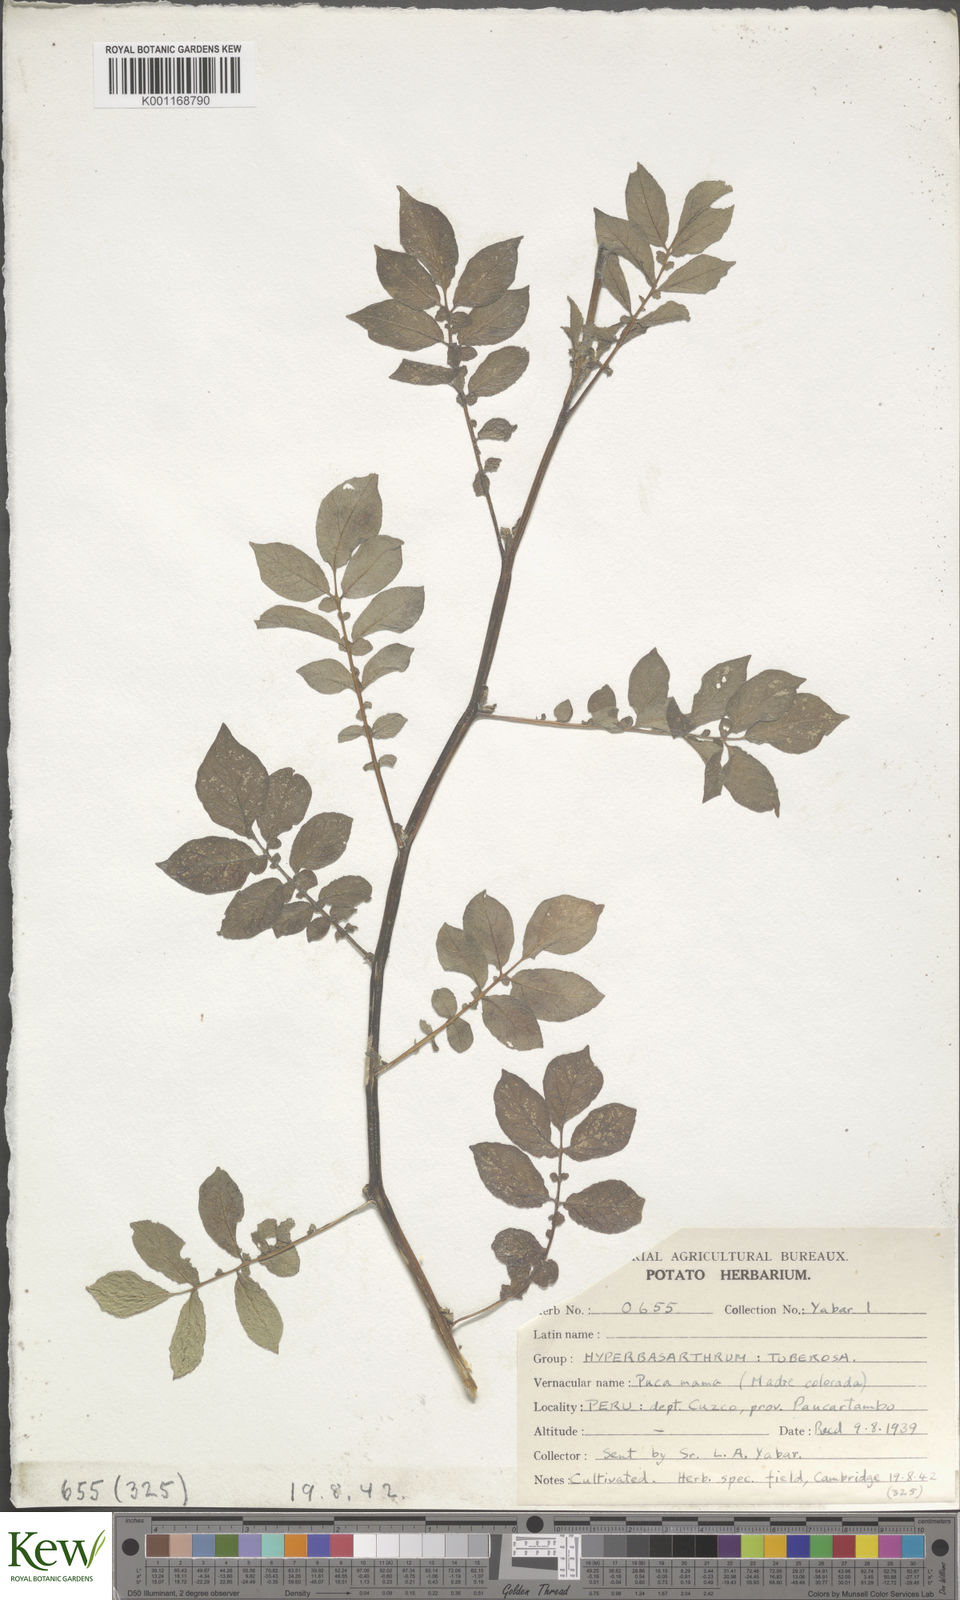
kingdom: Plantae
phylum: Tracheophyta
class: Magnoliopsida
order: Solanales
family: Solanaceae
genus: Solanum
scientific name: Solanum chaucha
